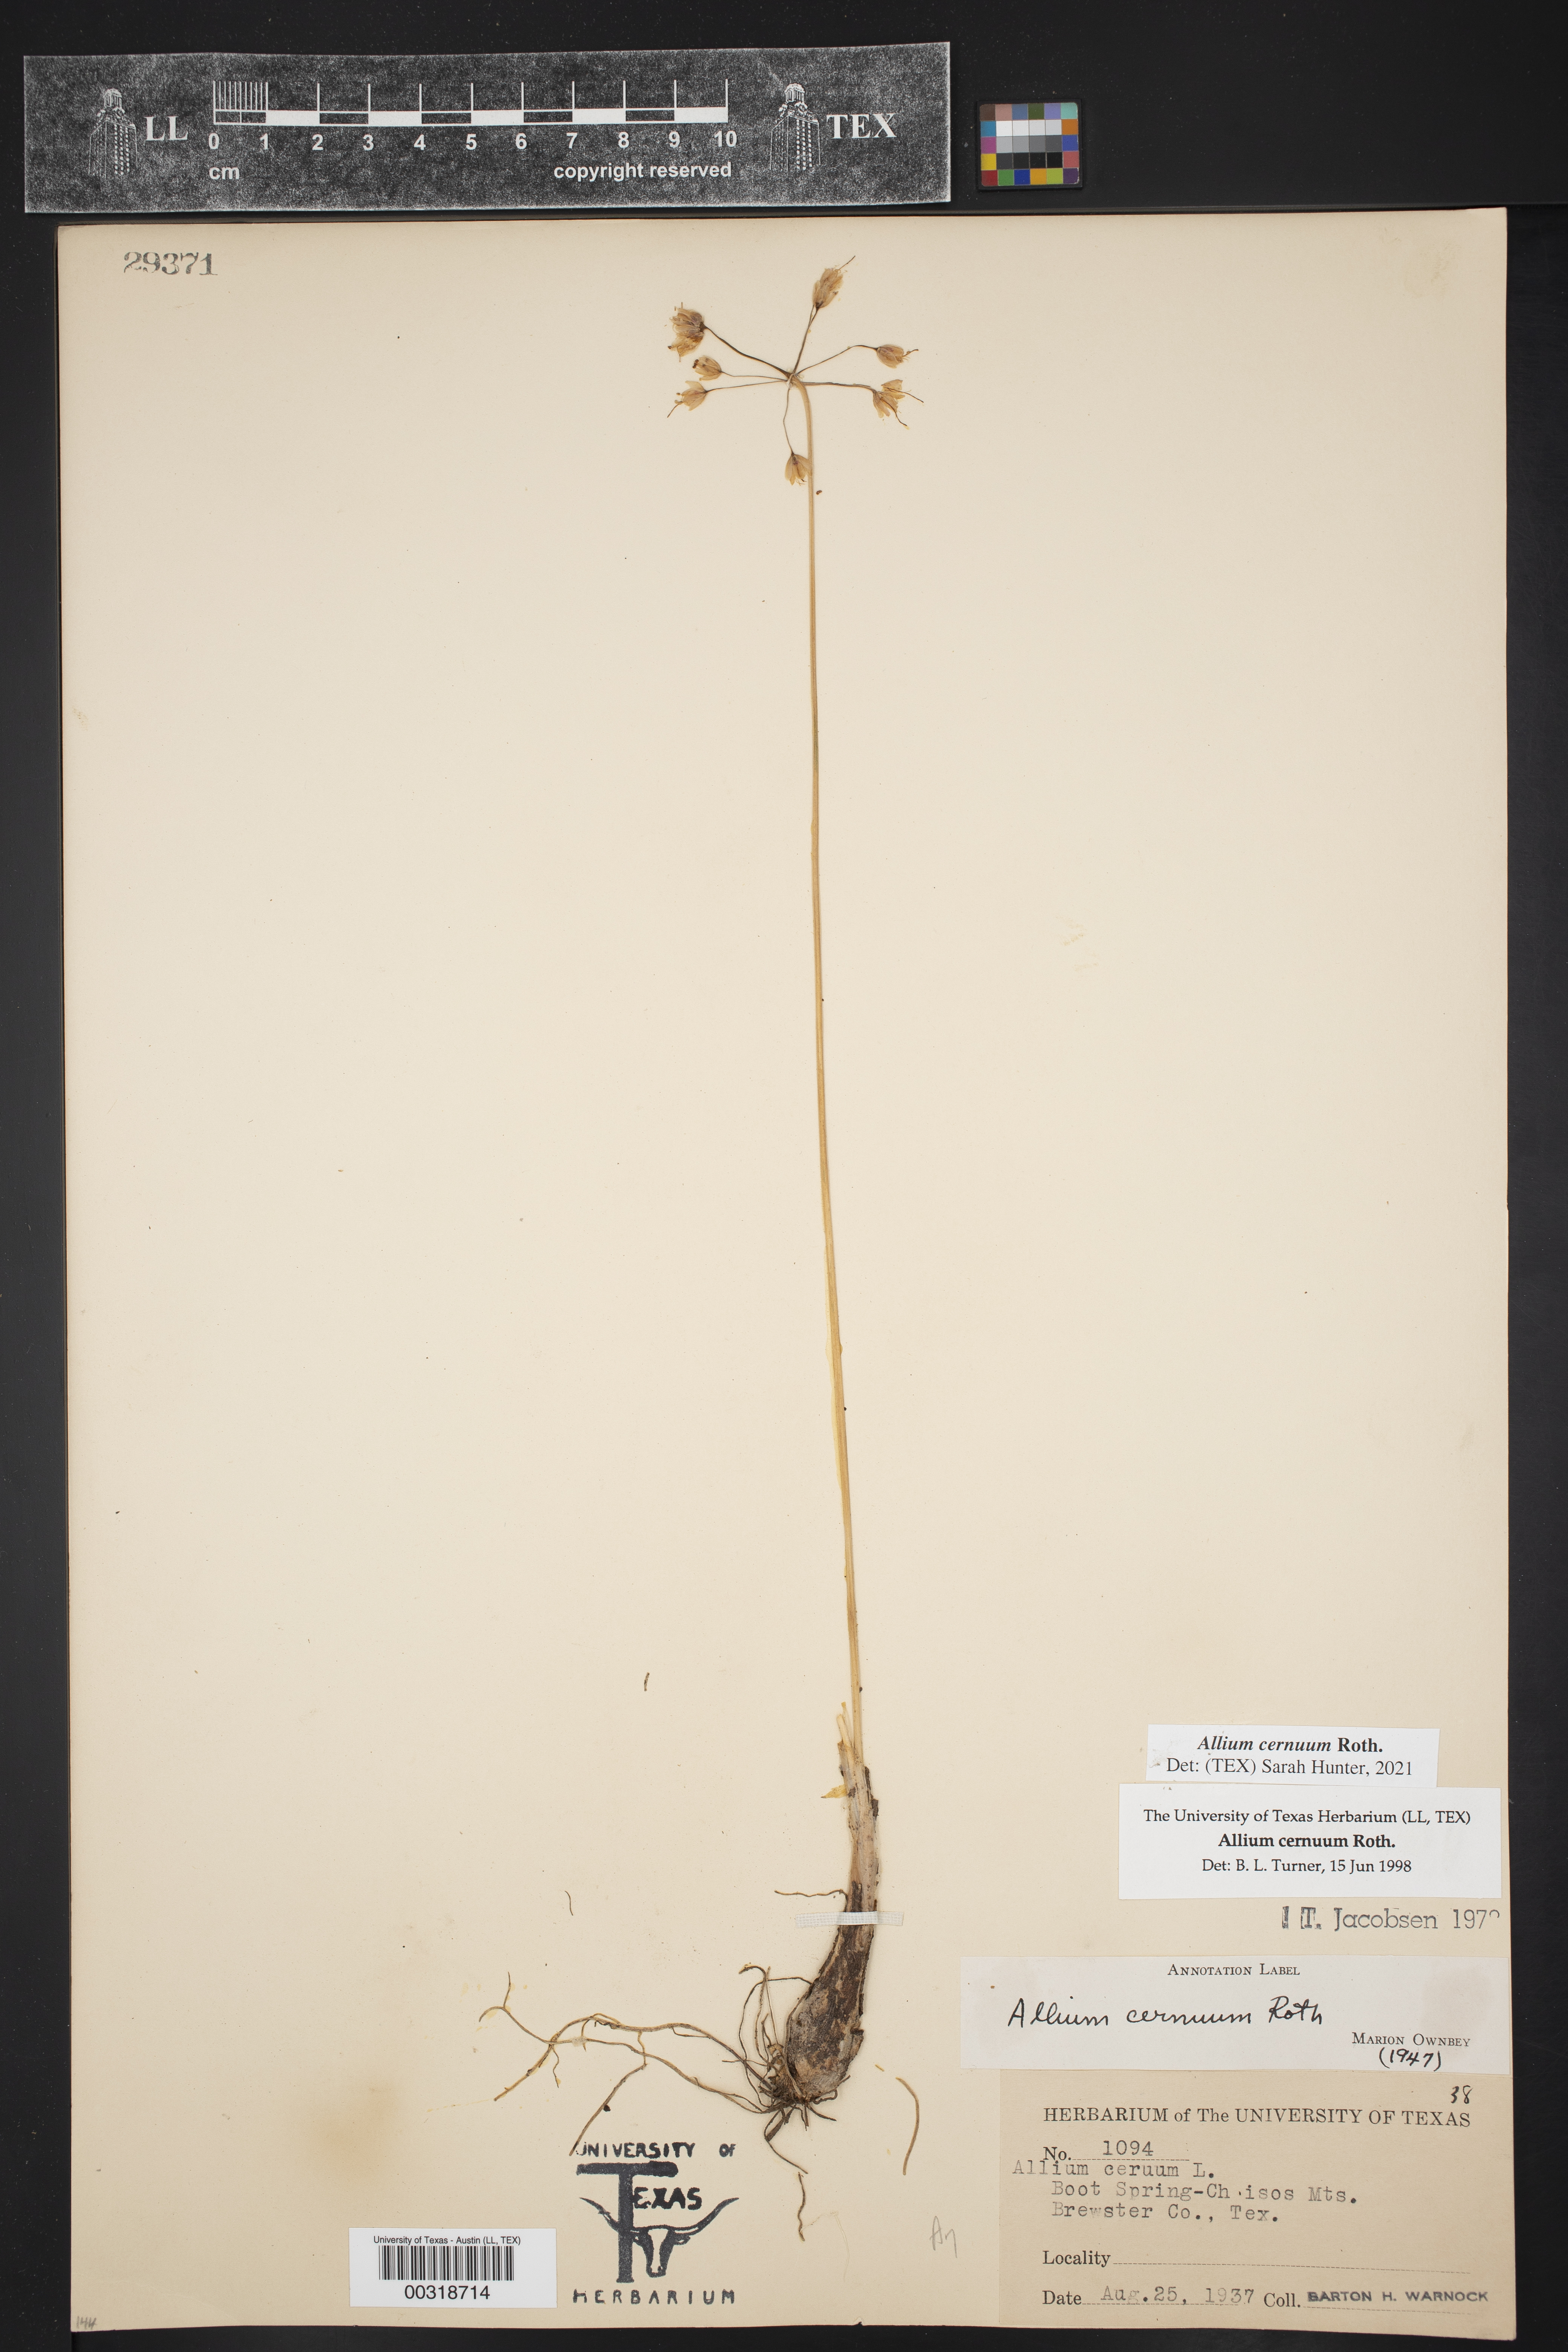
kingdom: Plantae
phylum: Tracheophyta
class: Liliopsida
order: Asparagales
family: Amaryllidaceae
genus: Allium
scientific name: Allium canadense
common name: Meadow garlic
